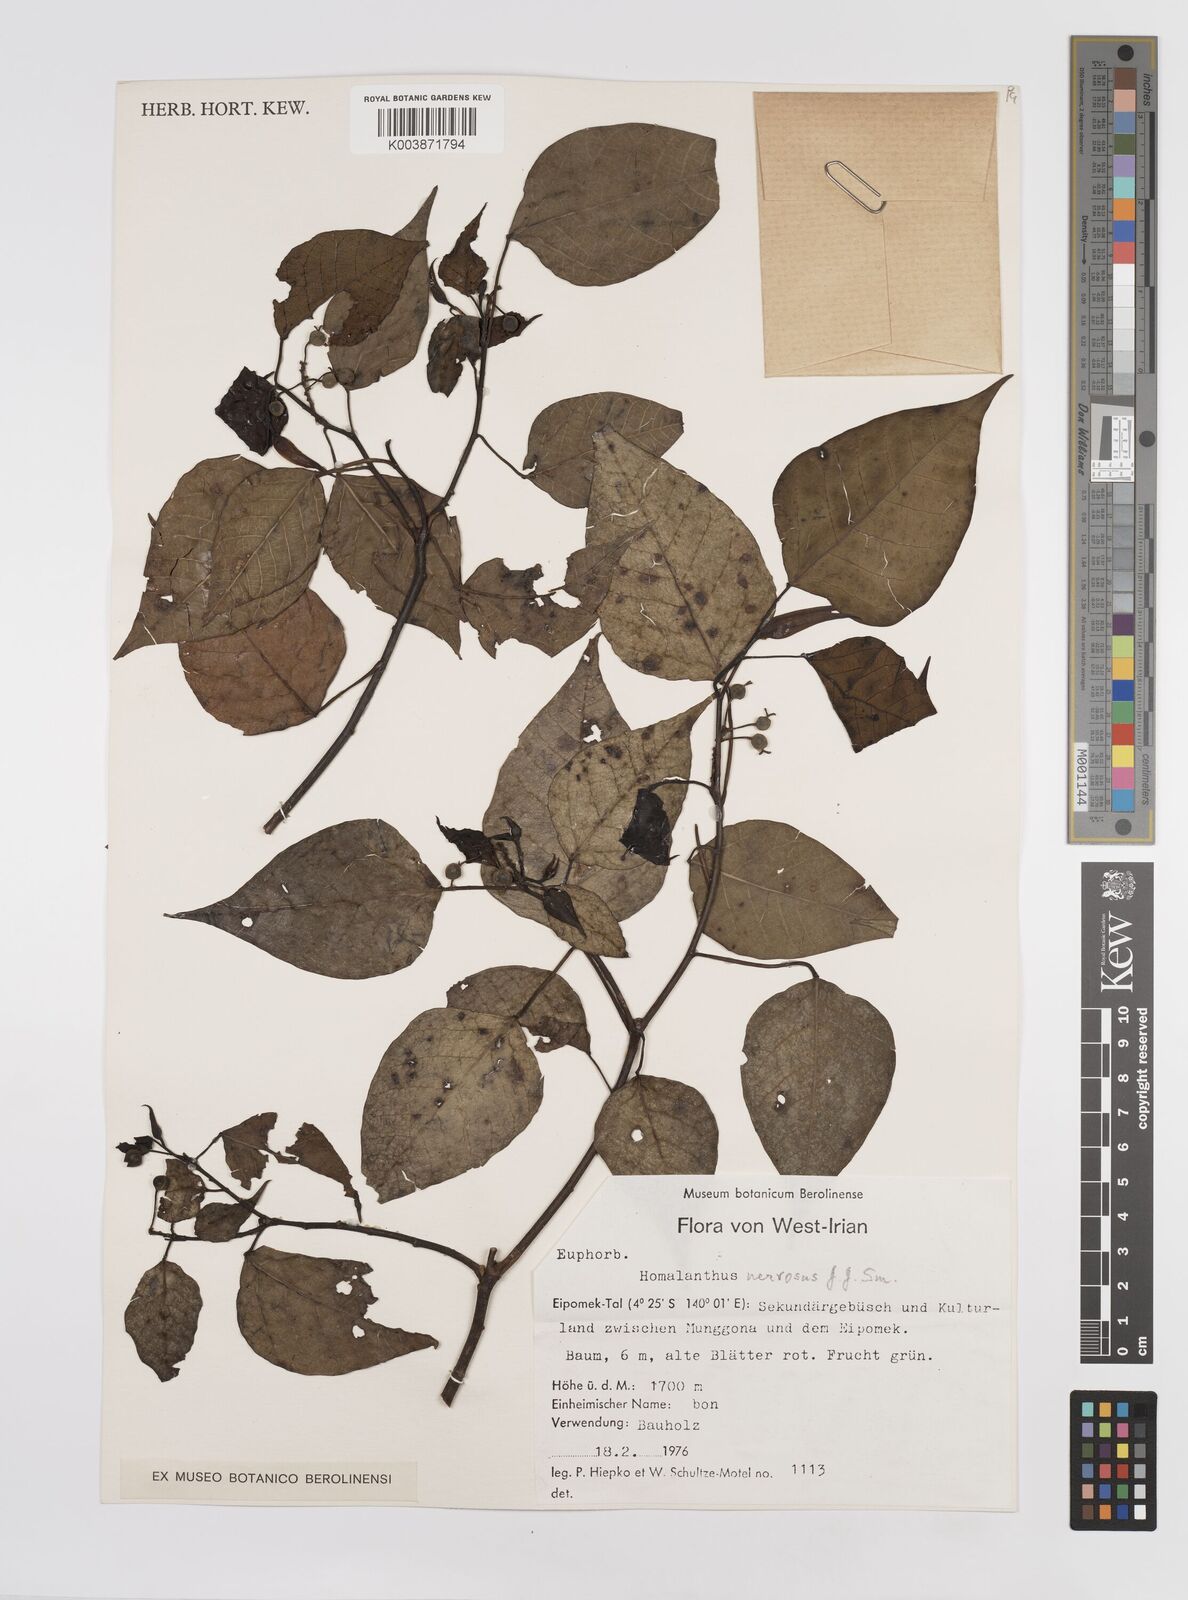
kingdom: Plantae
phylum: Tracheophyta
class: Magnoliopsida
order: Malpighiales
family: Euphorbiaceae
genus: Homalanthus
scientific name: Homalanthus nervosus
